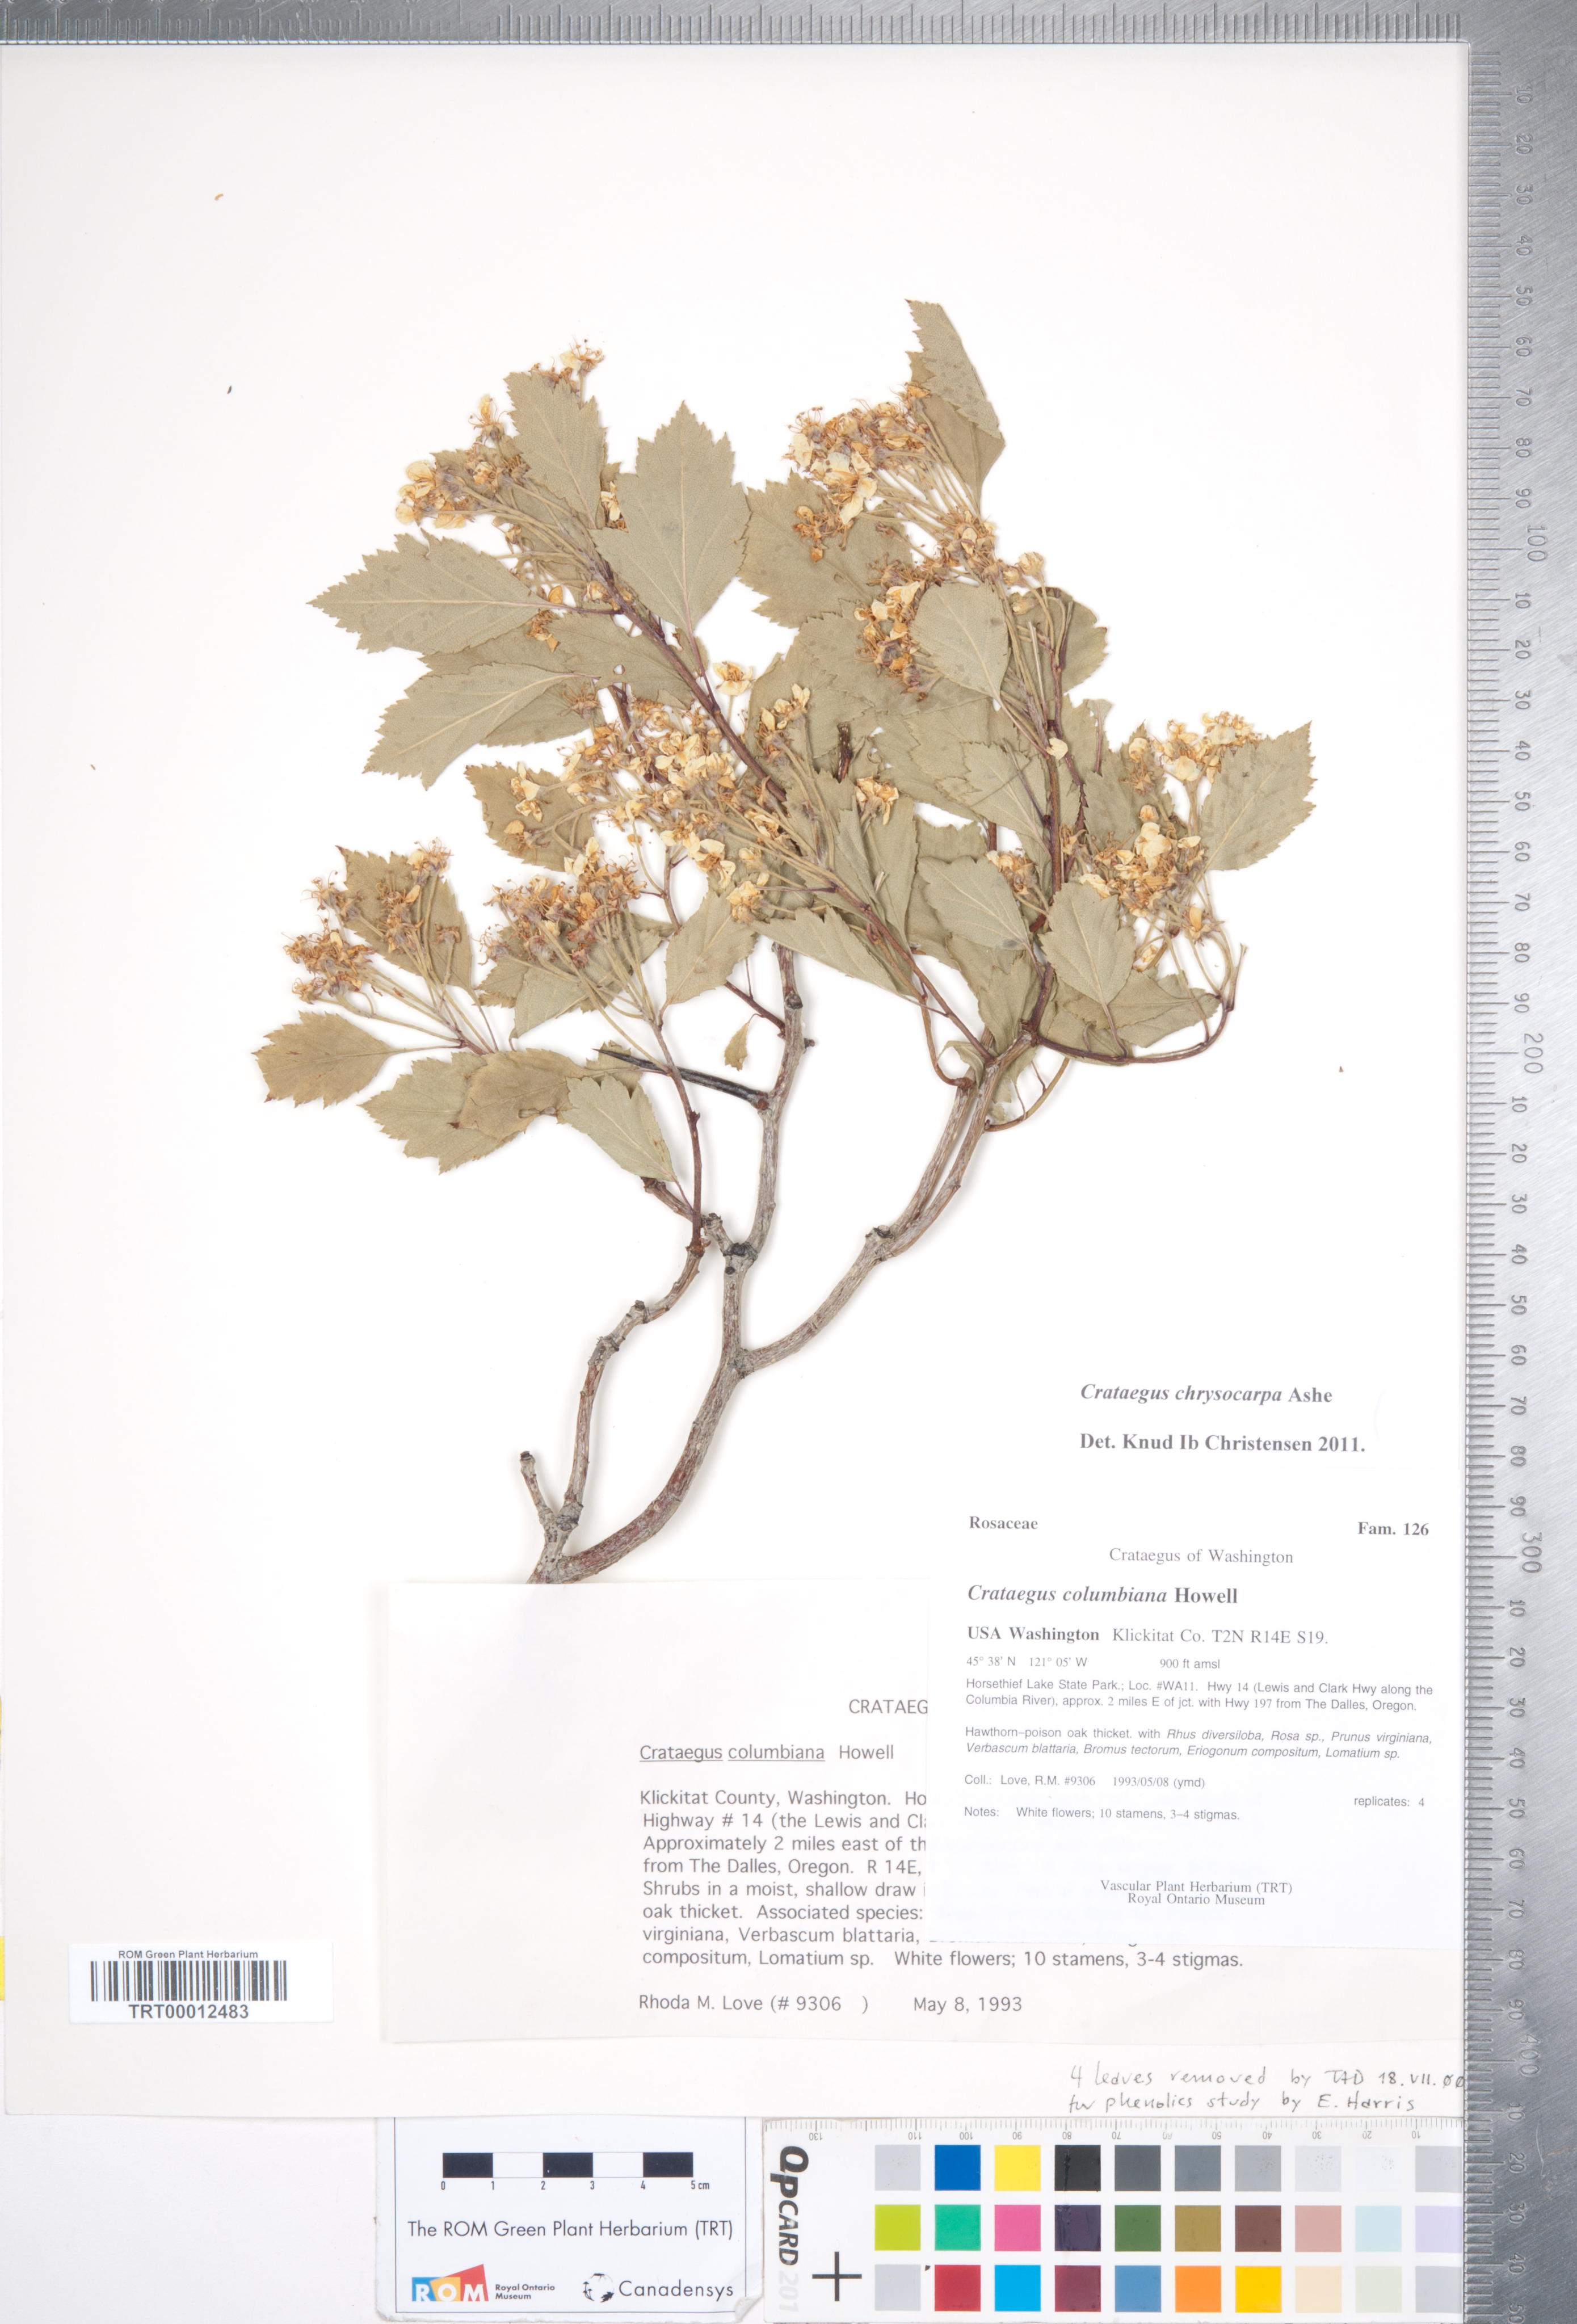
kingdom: Plantae
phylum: Tracheophyta
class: Magnoliopsida
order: Rosales
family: Rosaceae
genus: Crataegus
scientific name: Crataegus chrysocarpa
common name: Fire-berry hawthorn
